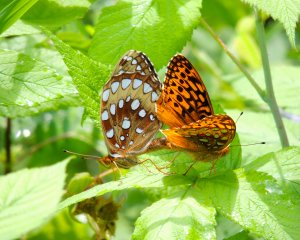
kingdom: Animalia
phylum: Arthropoda
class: Insecta
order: Lepidoptera
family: Nymphalidae
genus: Speyeria
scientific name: Speyeria cybele
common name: Great Spangled Fritillary
